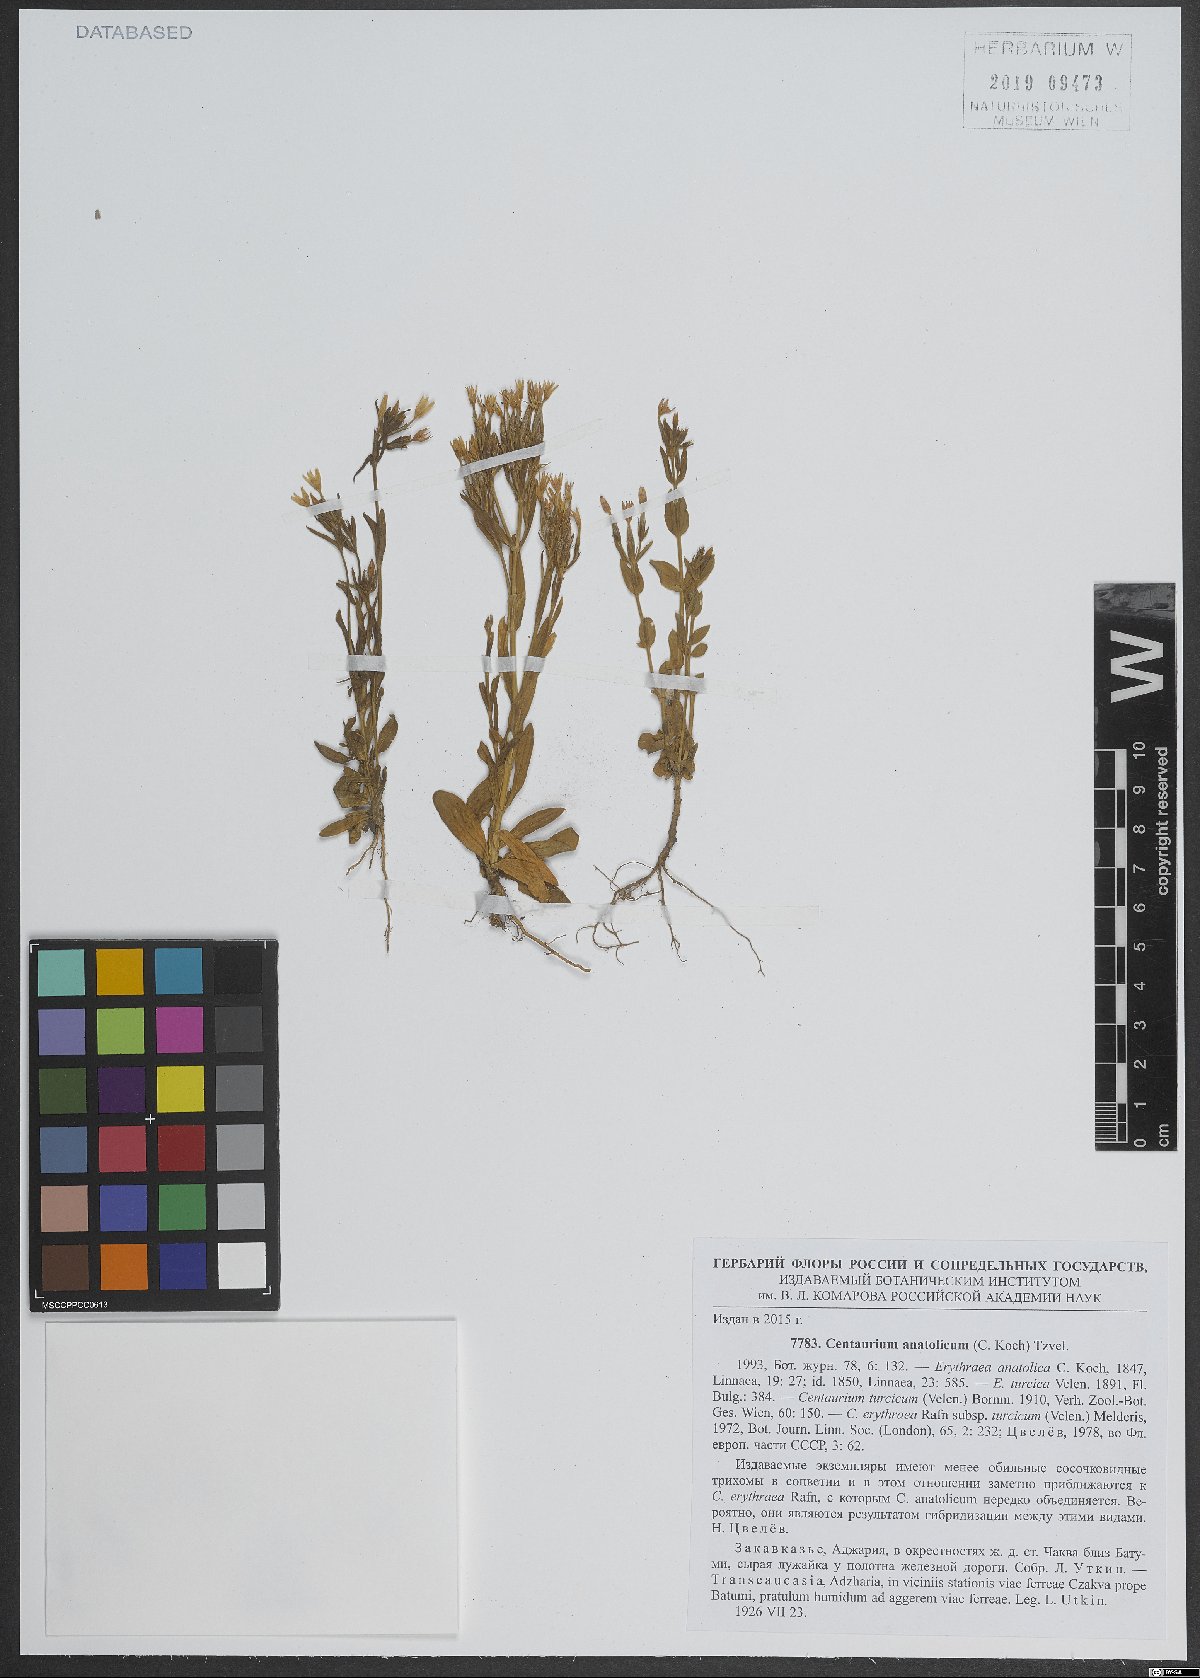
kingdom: Plantae
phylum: Tracheophyta
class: Magnoliopsida
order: Gentianales
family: Gentianaceae
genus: Centaurium
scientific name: Centaurium pulchellum
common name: Lesser centaury
